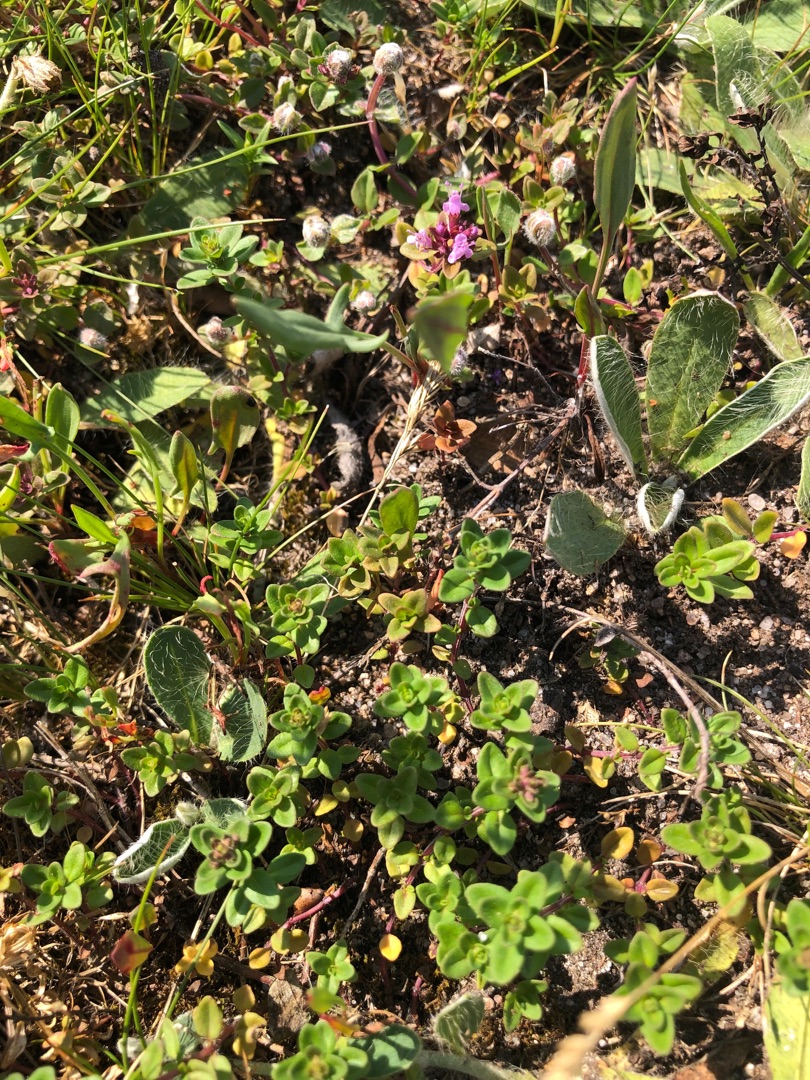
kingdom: Plantae
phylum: Tracheophyta
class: Magnoliopsida
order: Lamiales
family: Lamiaceae
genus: Thymus
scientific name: Thymus pulegioides
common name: Bredbladet timian
